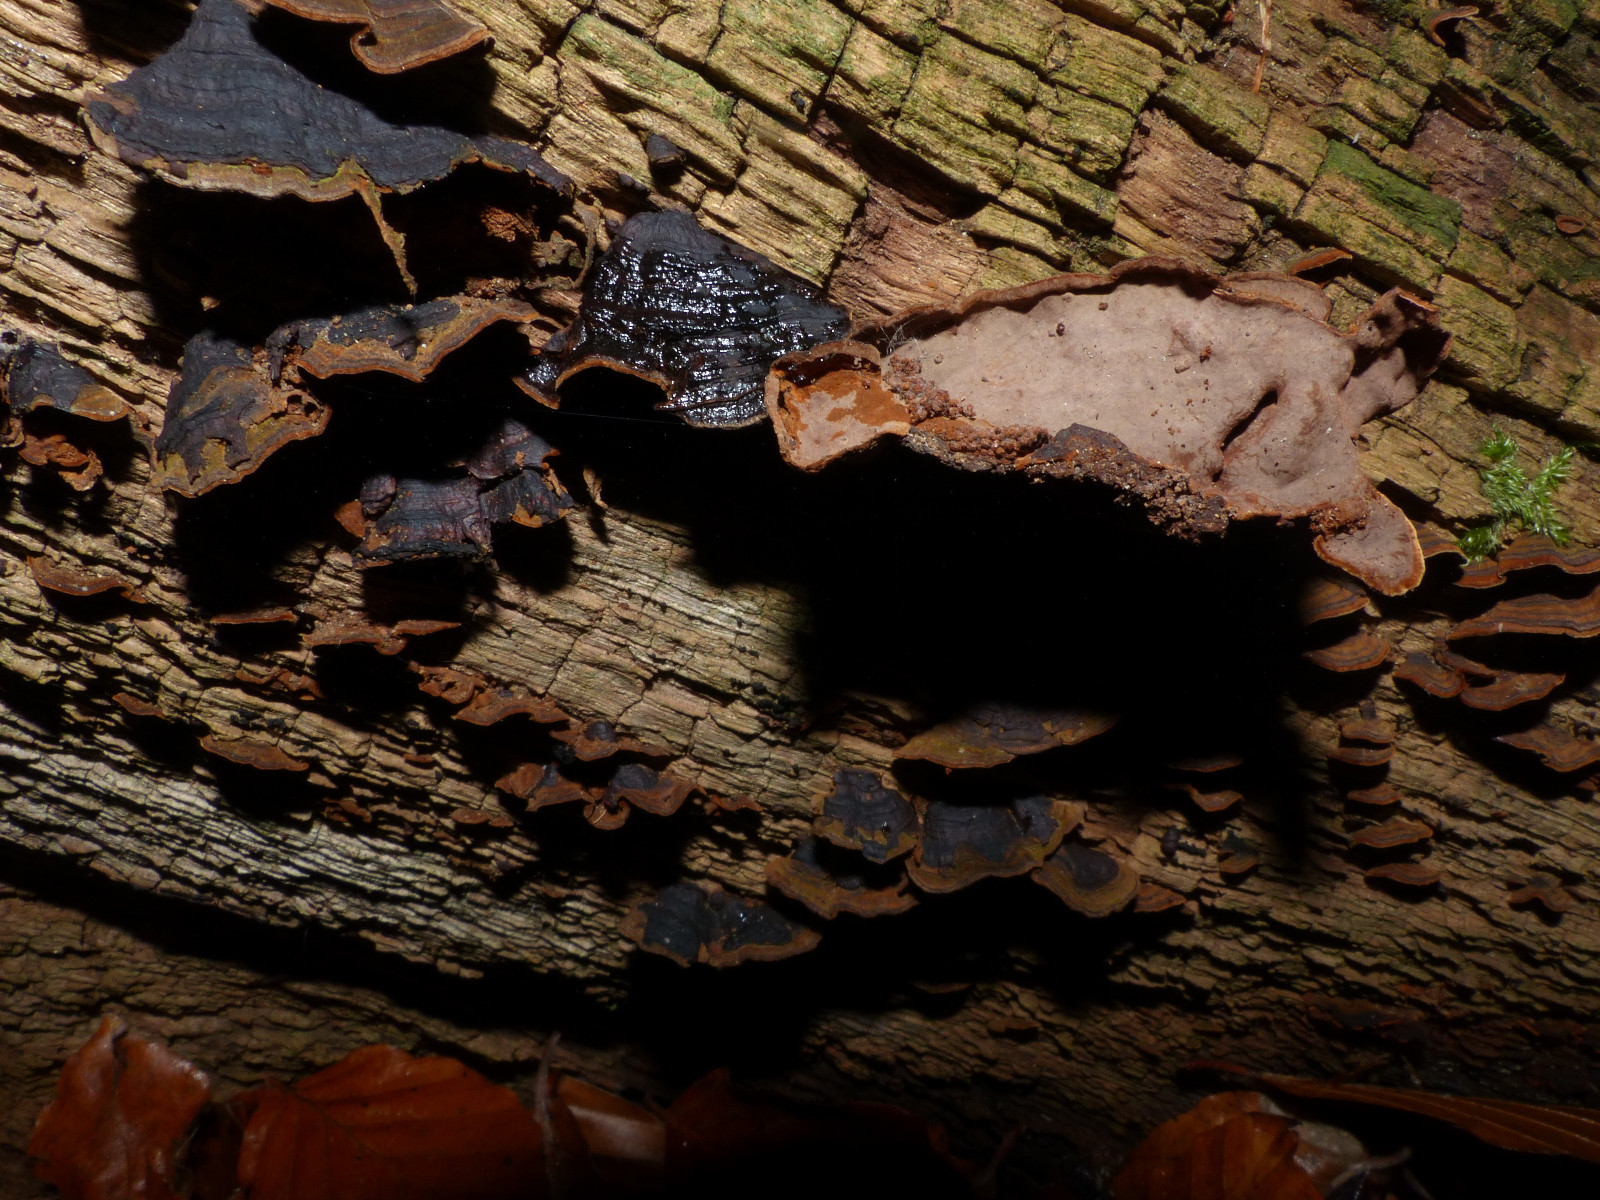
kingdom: Fungi
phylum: Basidiomycota
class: Agaricomycetes
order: Hymenochaetales
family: Hymenochaetaceae
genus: Hymenochaete
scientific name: Hymenochaete rubiginosa
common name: stiv ruslædersvamp
